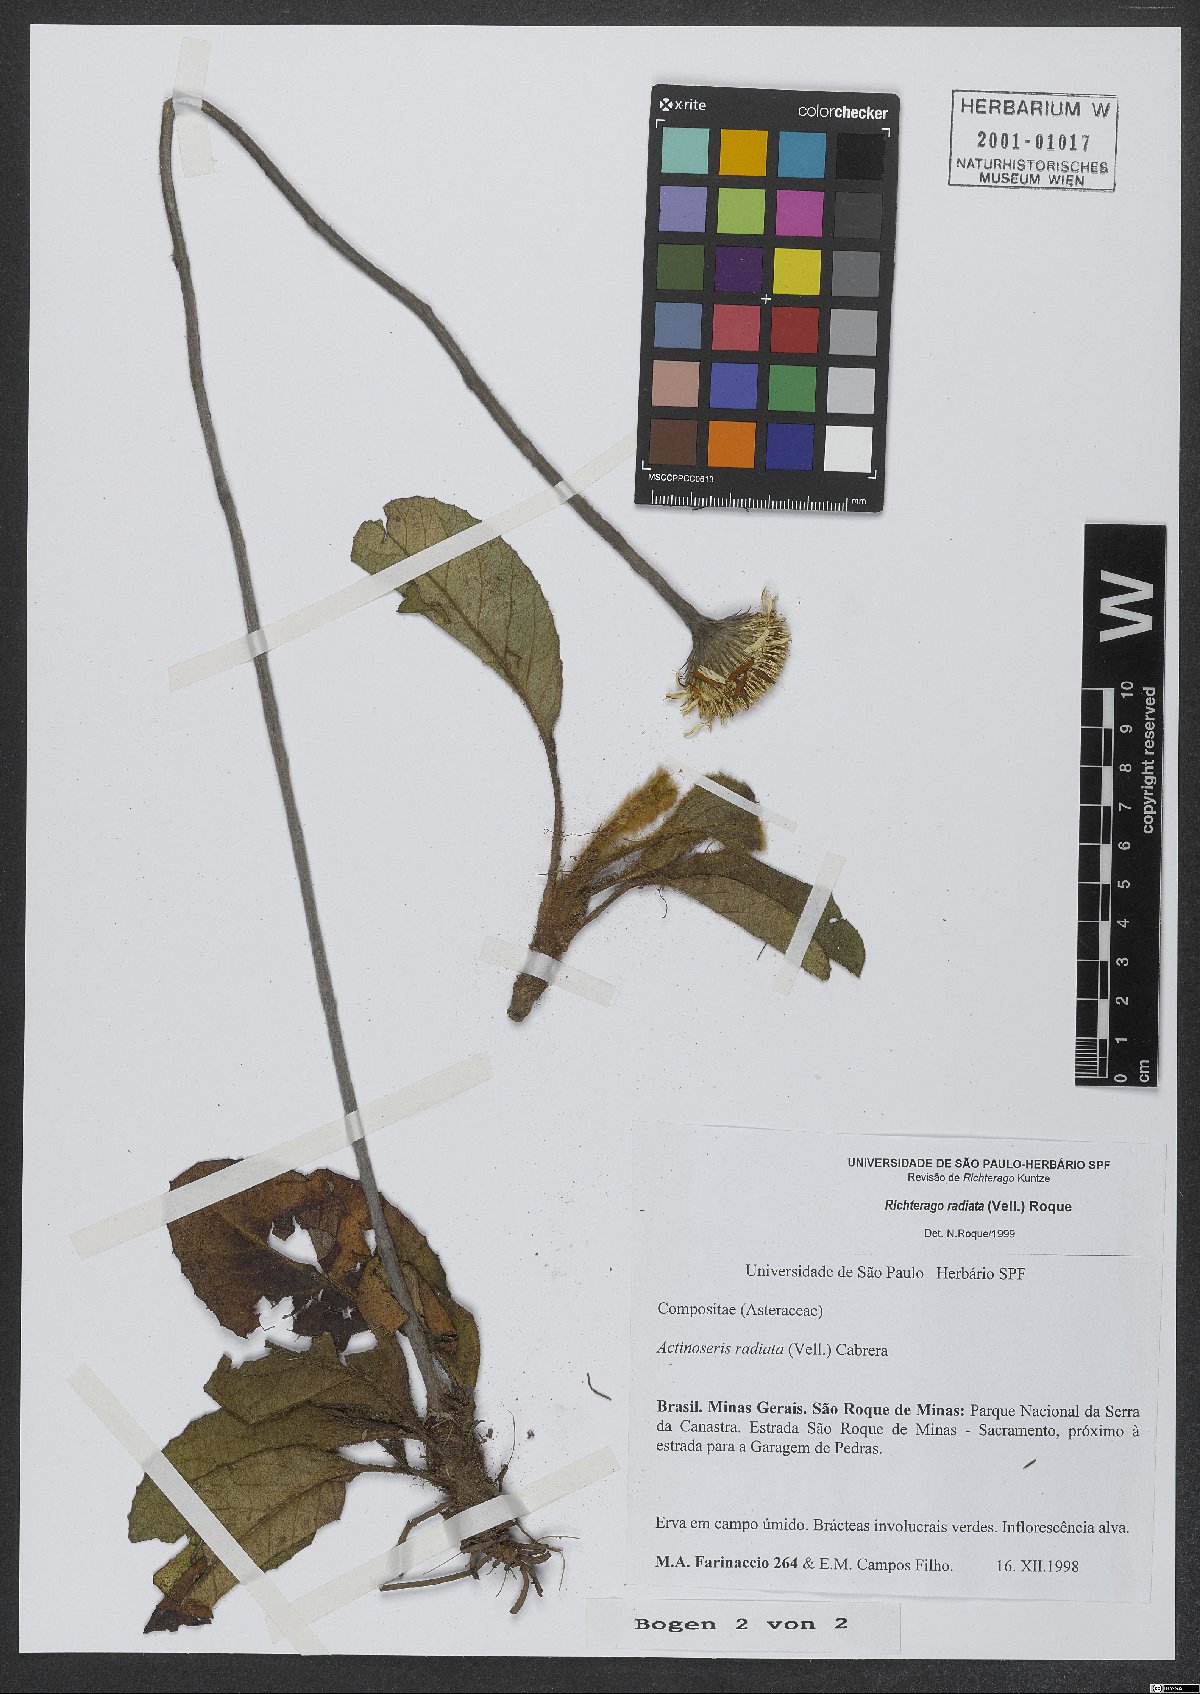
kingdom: Plantae
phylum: Tracheophyta
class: Magnoliopsida
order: Asterales
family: Asteraceae
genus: Richterago
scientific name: Richterago radiata
